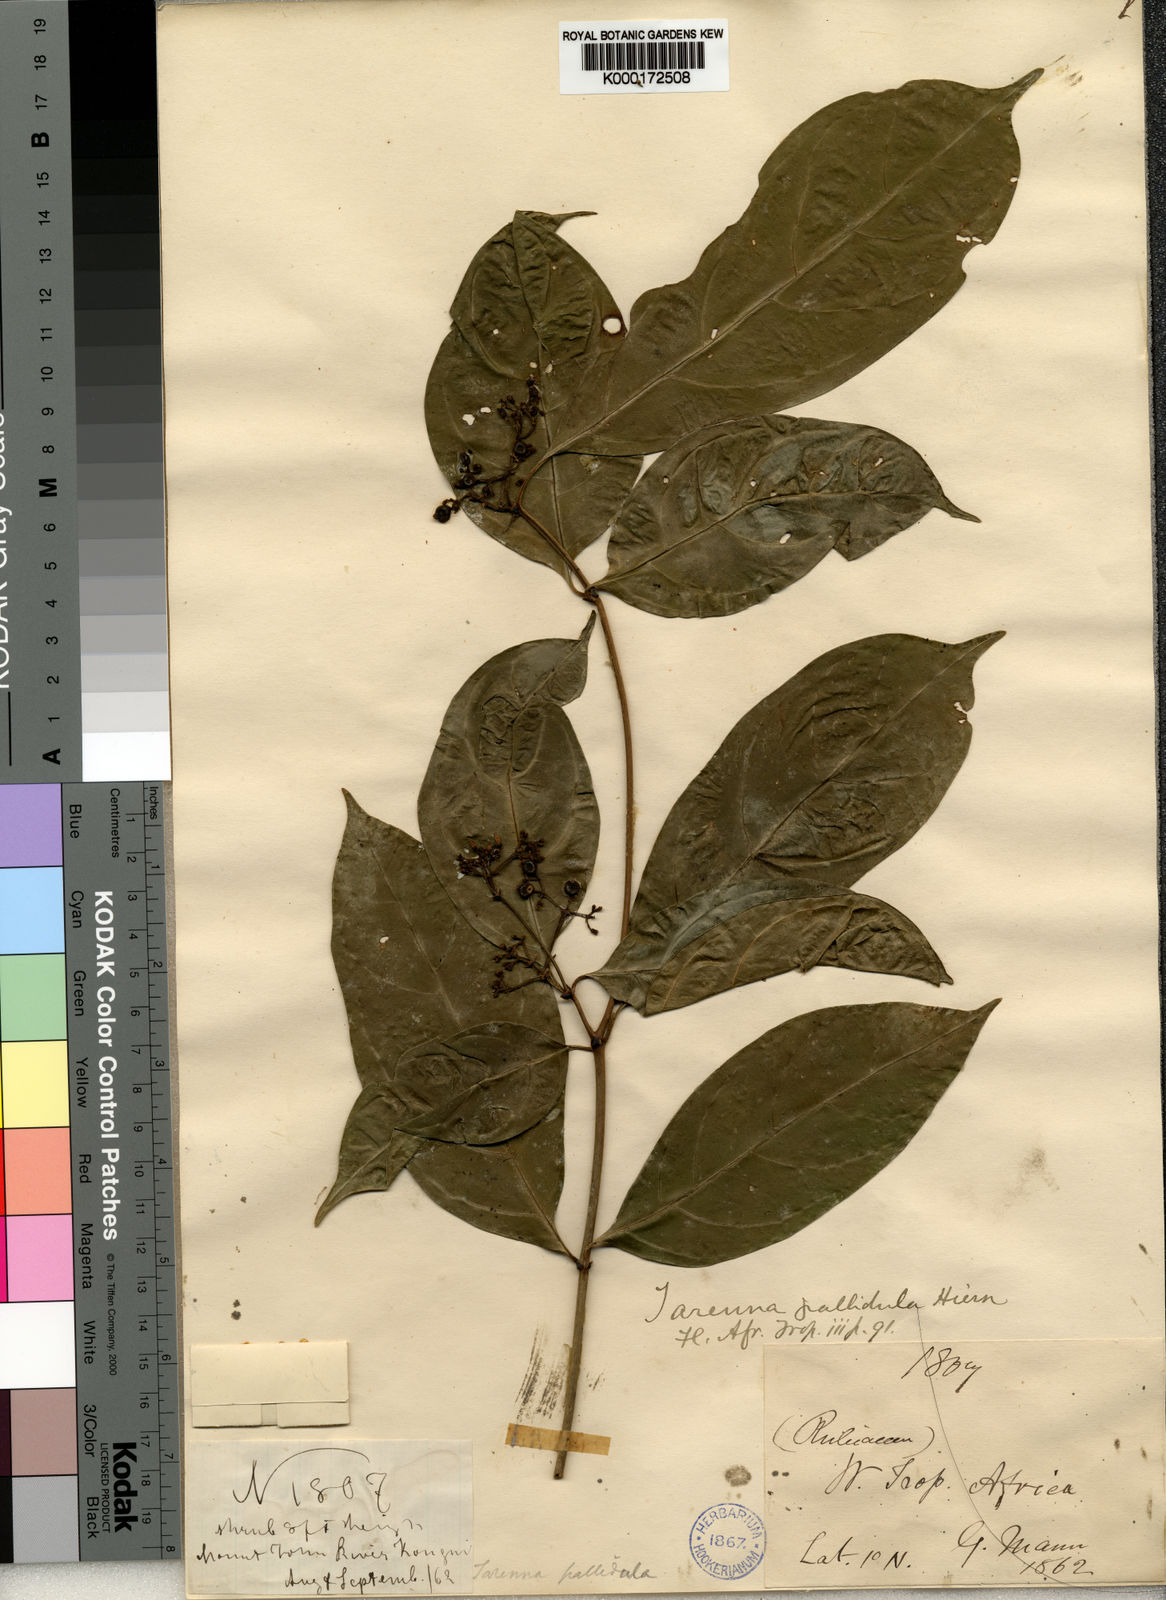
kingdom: Plantae
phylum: Tracheophyta
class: Magnoliopsida
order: Gentianales
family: Rubiaceae
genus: Tarenna
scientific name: Tarenna pallidula
